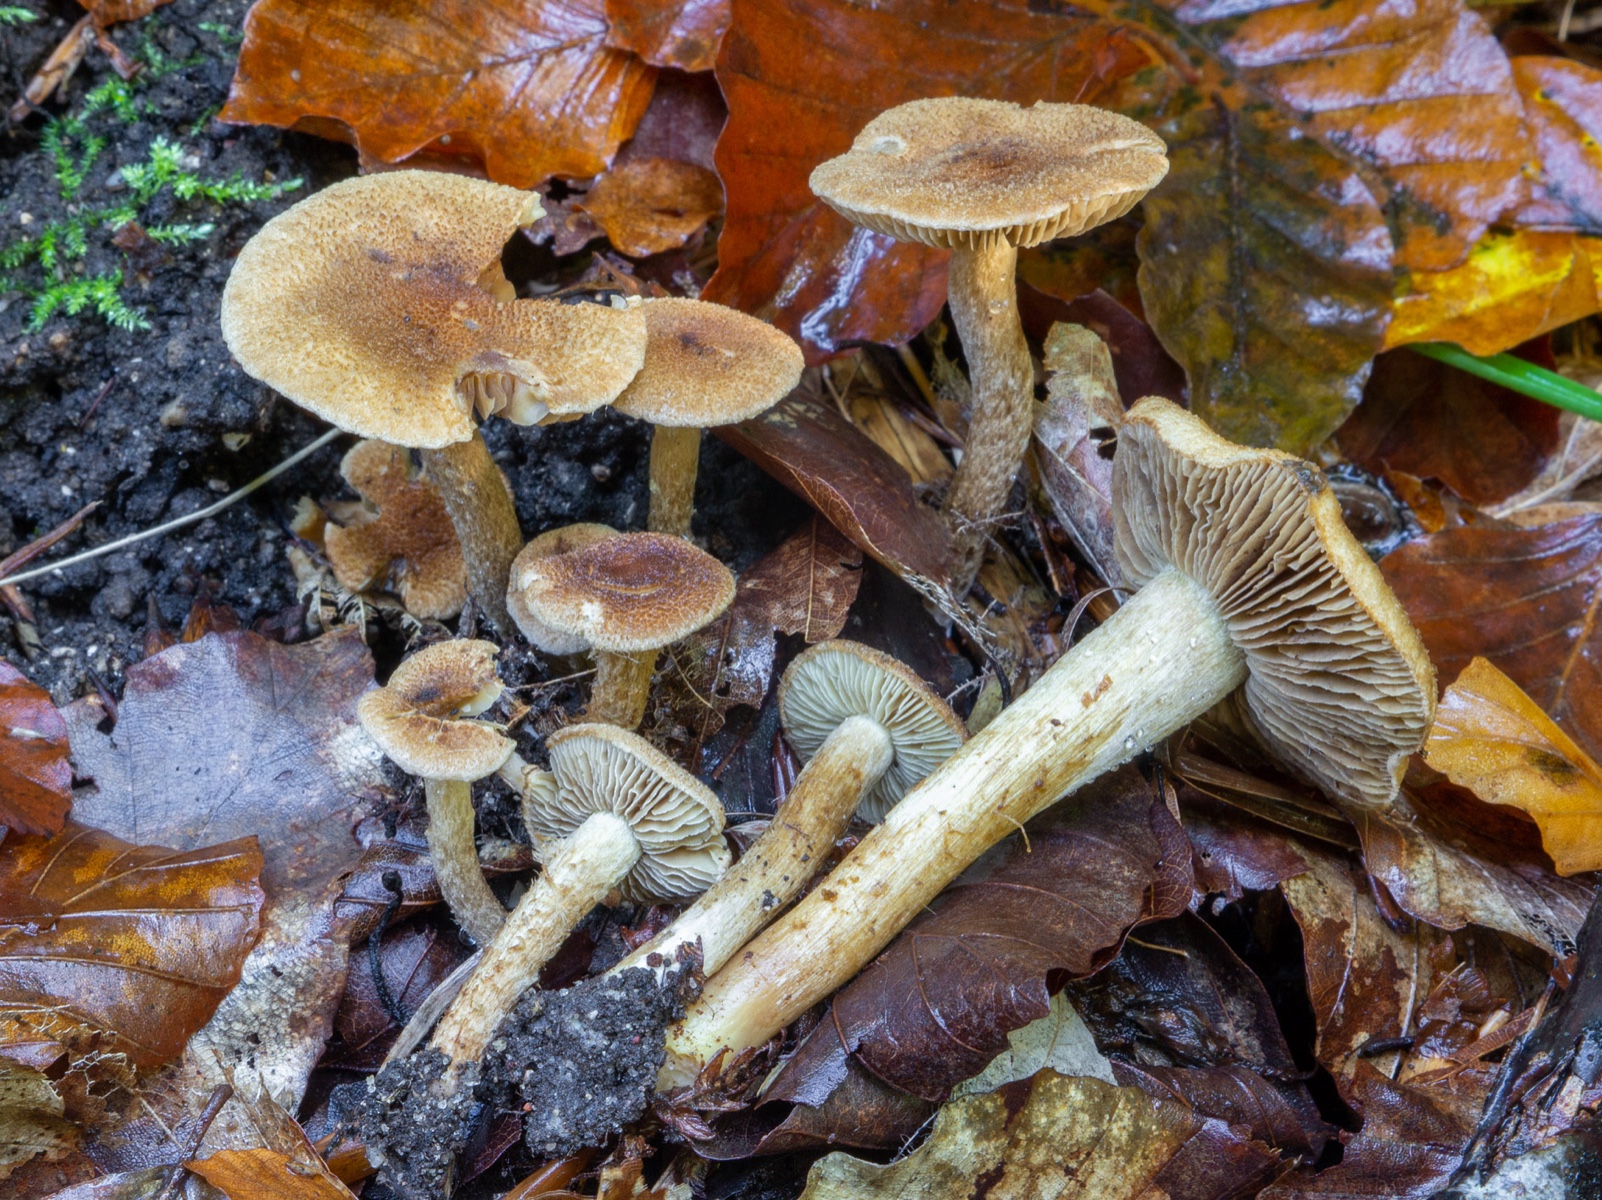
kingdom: Fungi
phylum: Basidiomycota
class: Agaricomycetes
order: Agaricales
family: Inocybaceae
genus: Mallocybe
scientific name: Mallocybe malenconii
